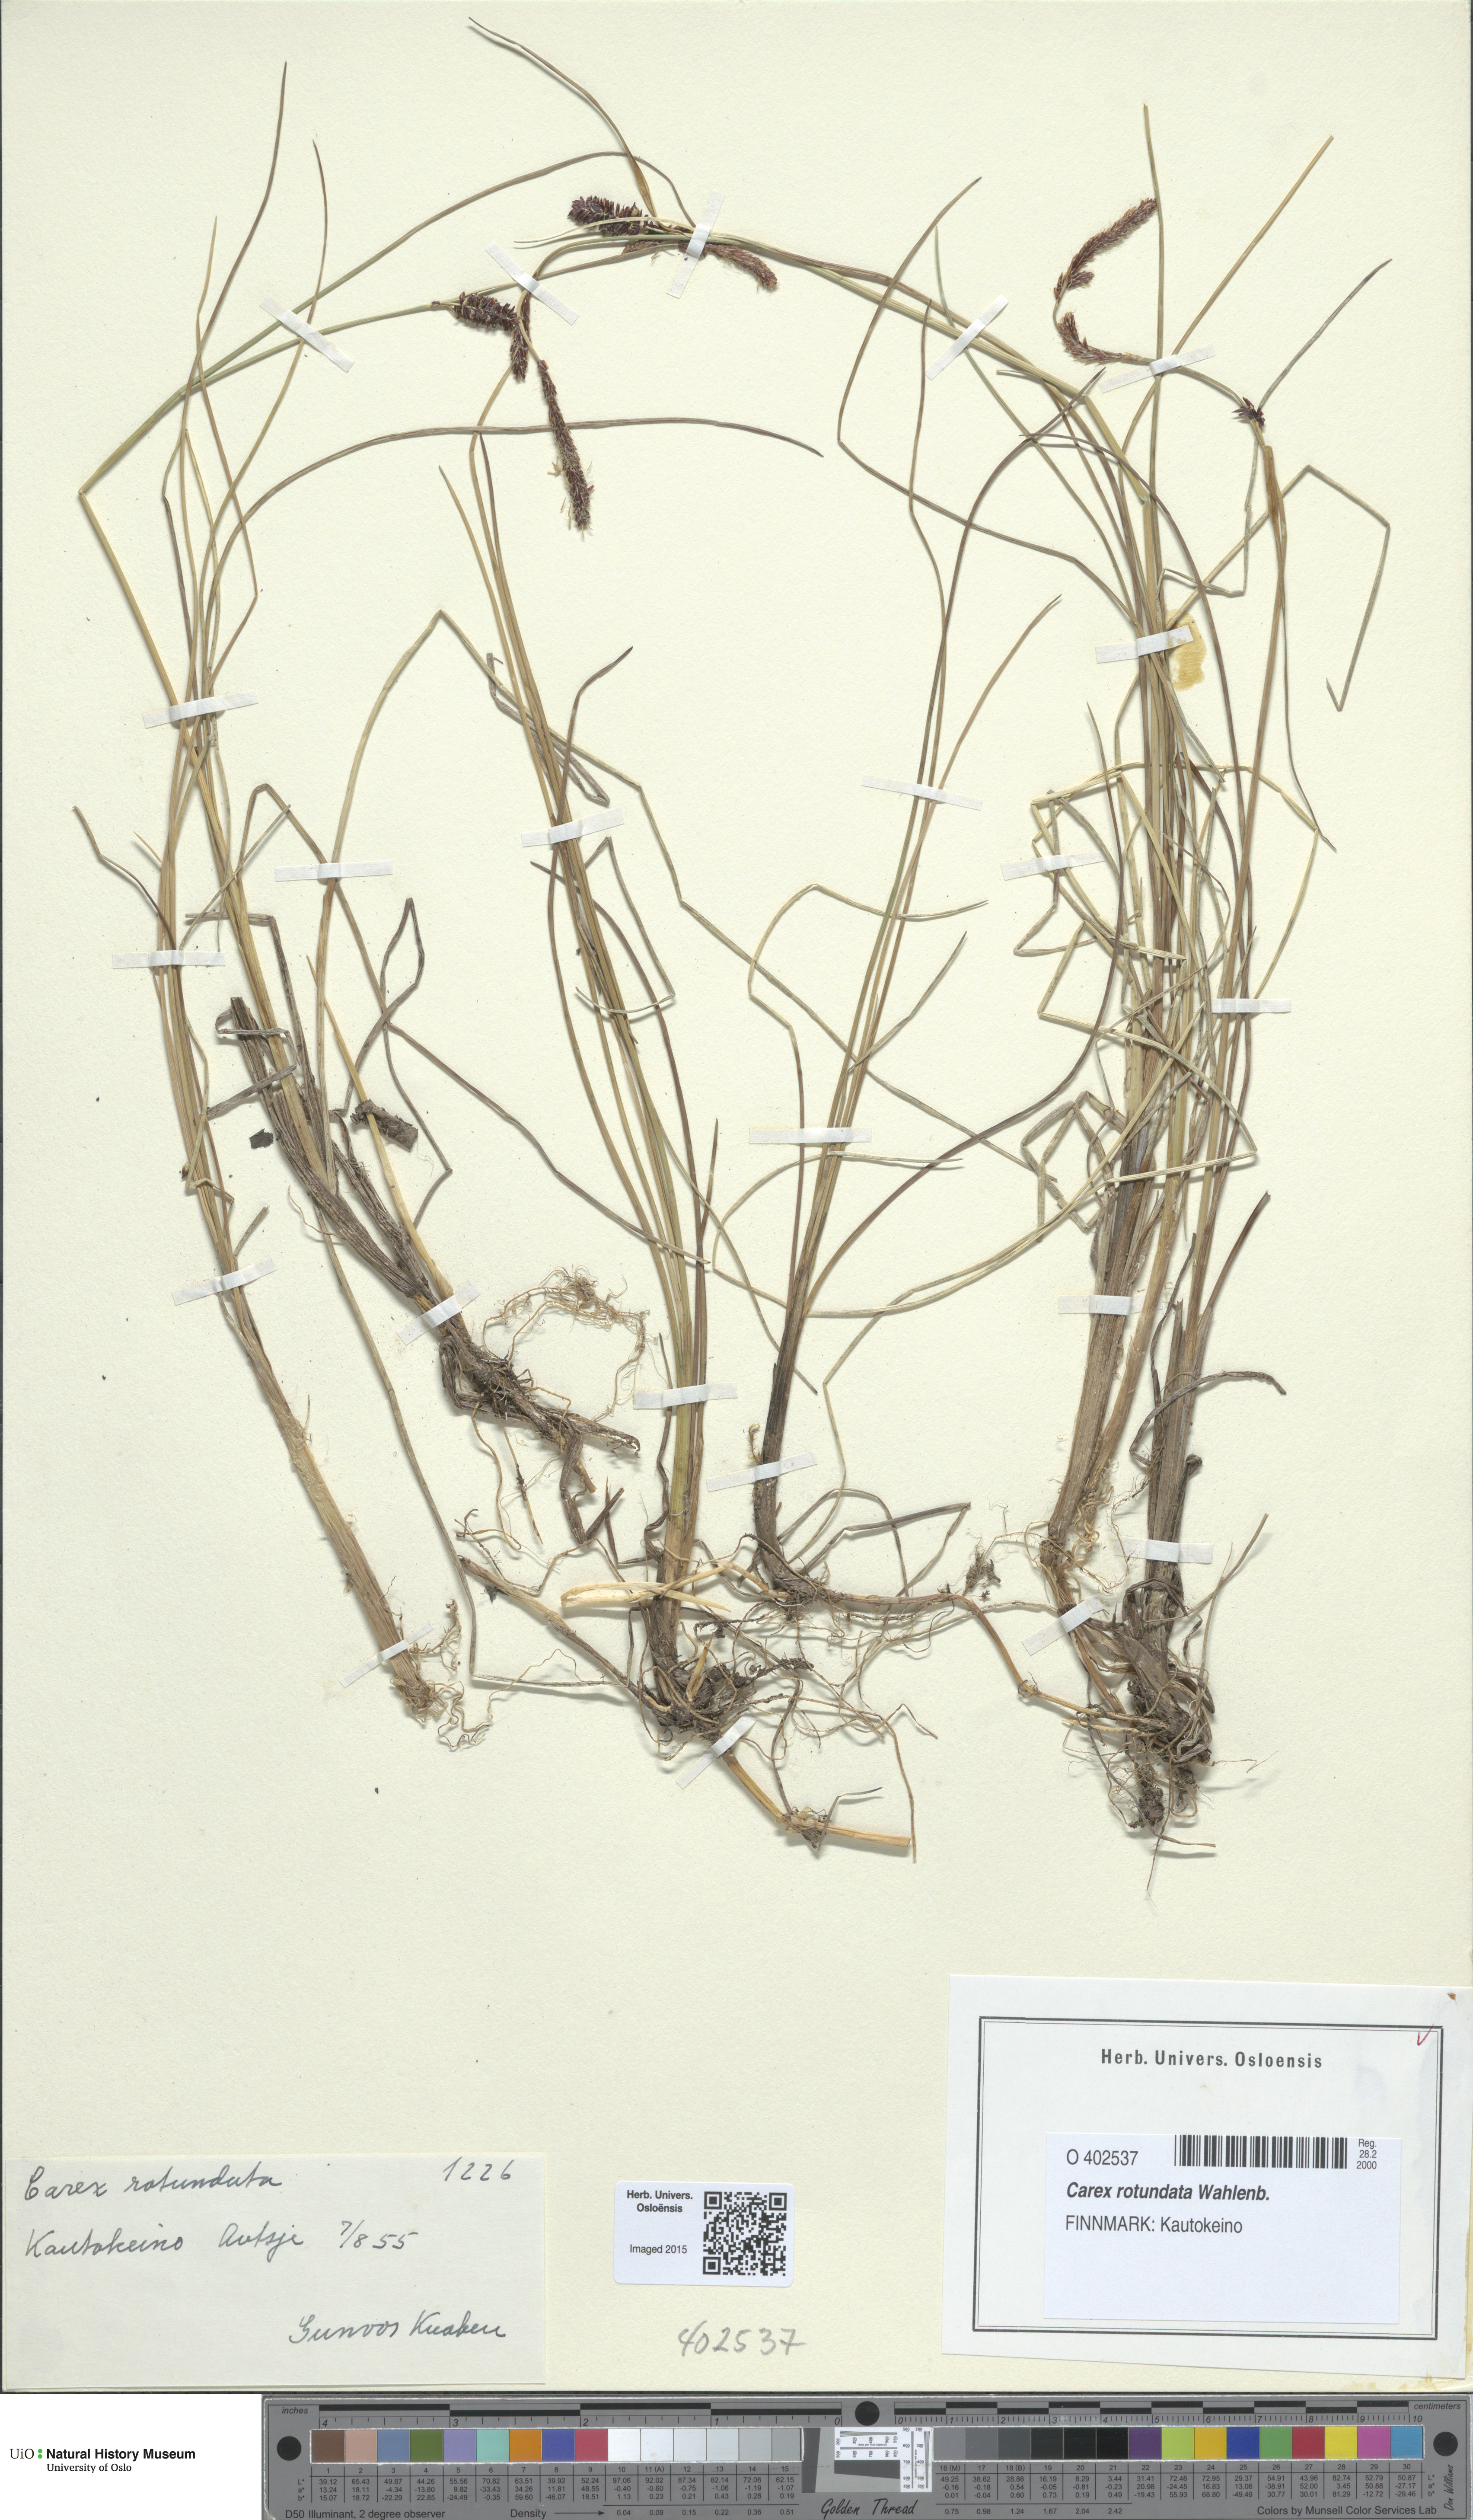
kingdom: Plantae
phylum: Tracheophyta
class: Liliopsida
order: Poales
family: Cyperaceae
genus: Carex
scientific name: Carex rotundata
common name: Round-fruited sedge
